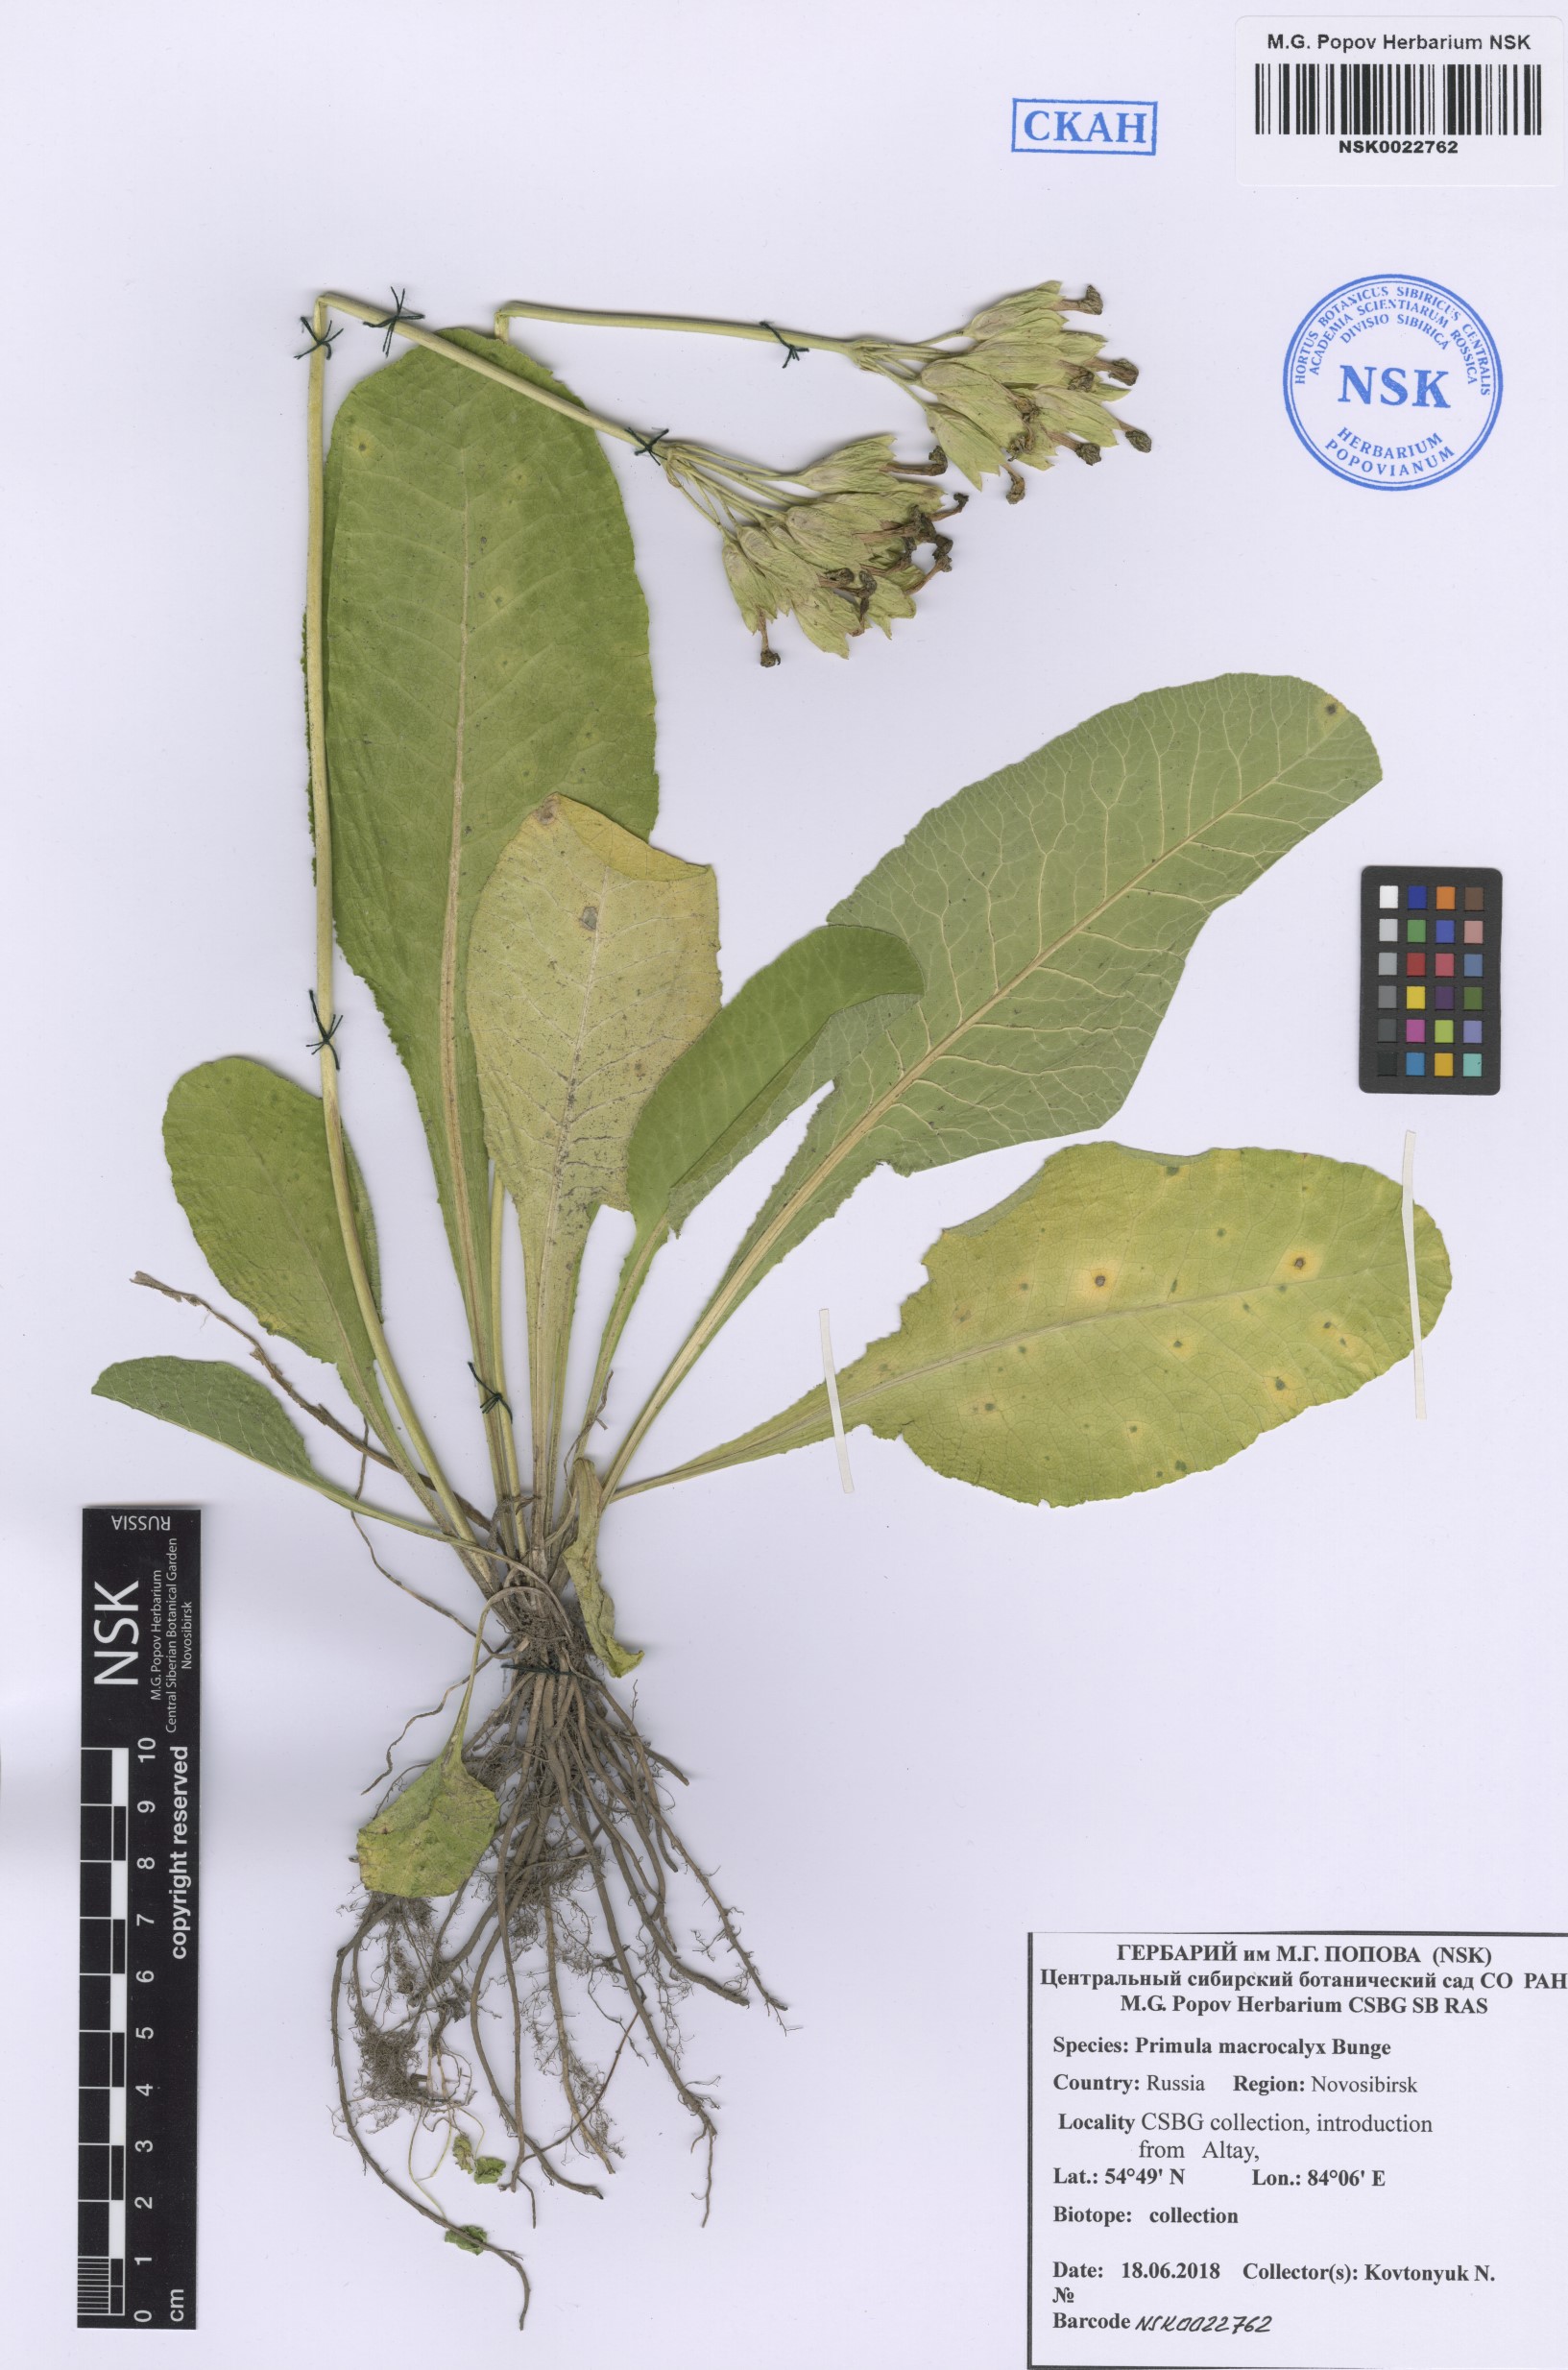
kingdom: Plantae
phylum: Tracheophyta
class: Magnoliopsida
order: Ericales
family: Primulaceae
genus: Primula
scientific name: Primula veris
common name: Cowslip
